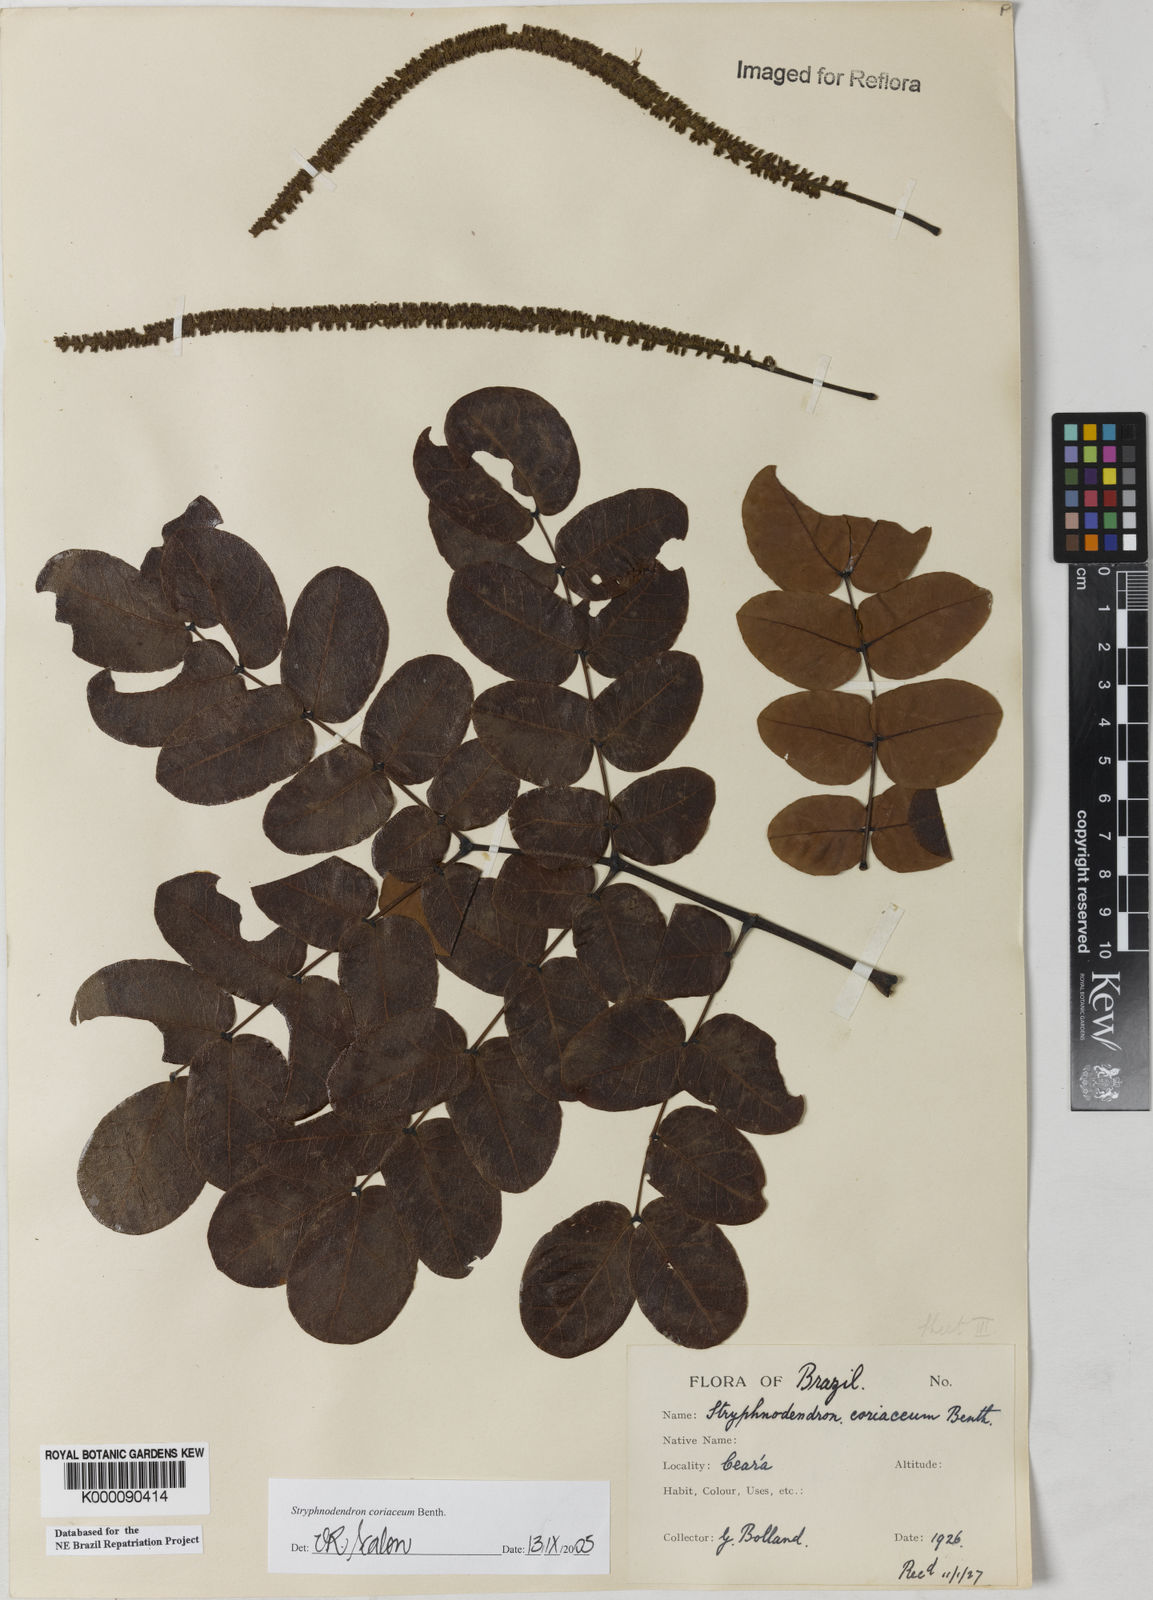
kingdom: Plantae
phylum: Tracheophyta
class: Magnoliopsida
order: Fabales
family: Fabaceae
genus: Stryphnodendron
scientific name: Stryphnodendron coriaceum
